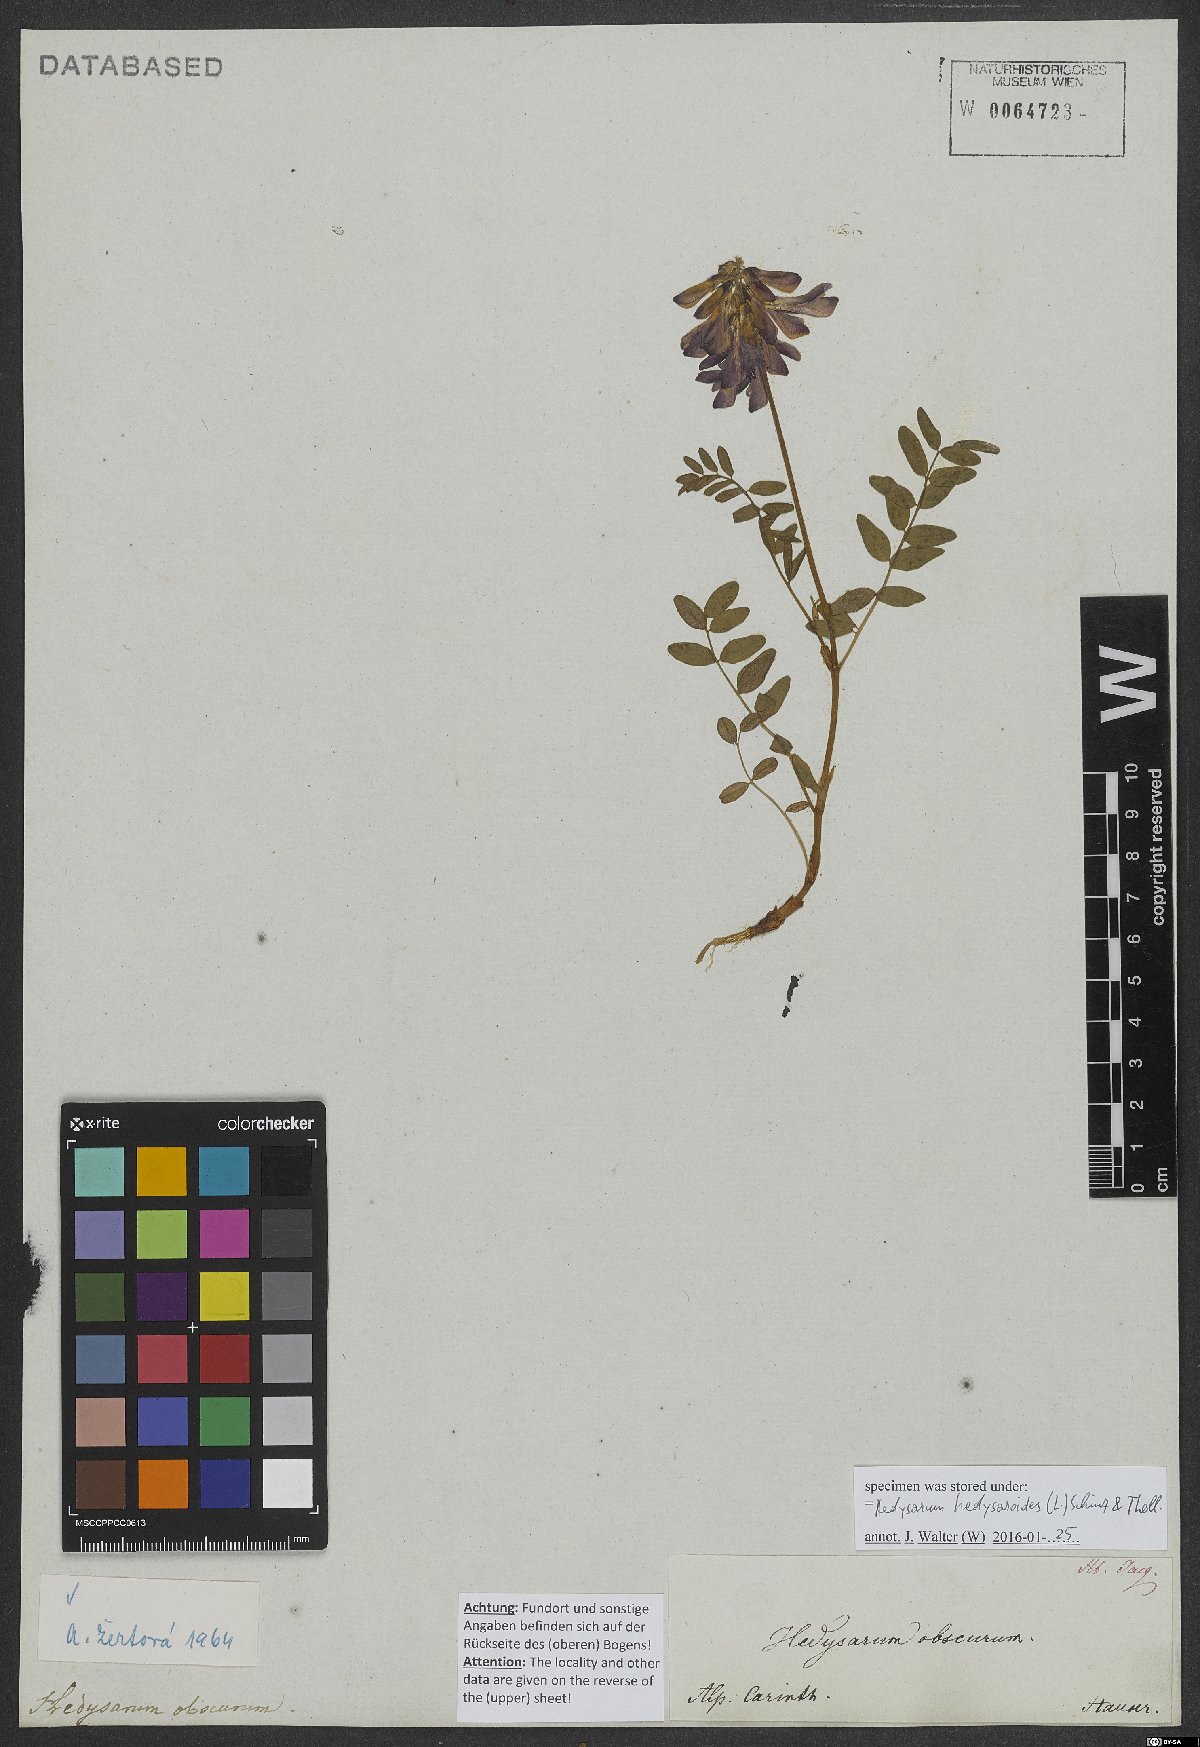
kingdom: Plantae
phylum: Tracheophyta
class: Magnoliopsida
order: Fabales
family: Fabaceae
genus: Hedysarum
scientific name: Hedysarum hedysaroides
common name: Alpine french-honeysuckle
